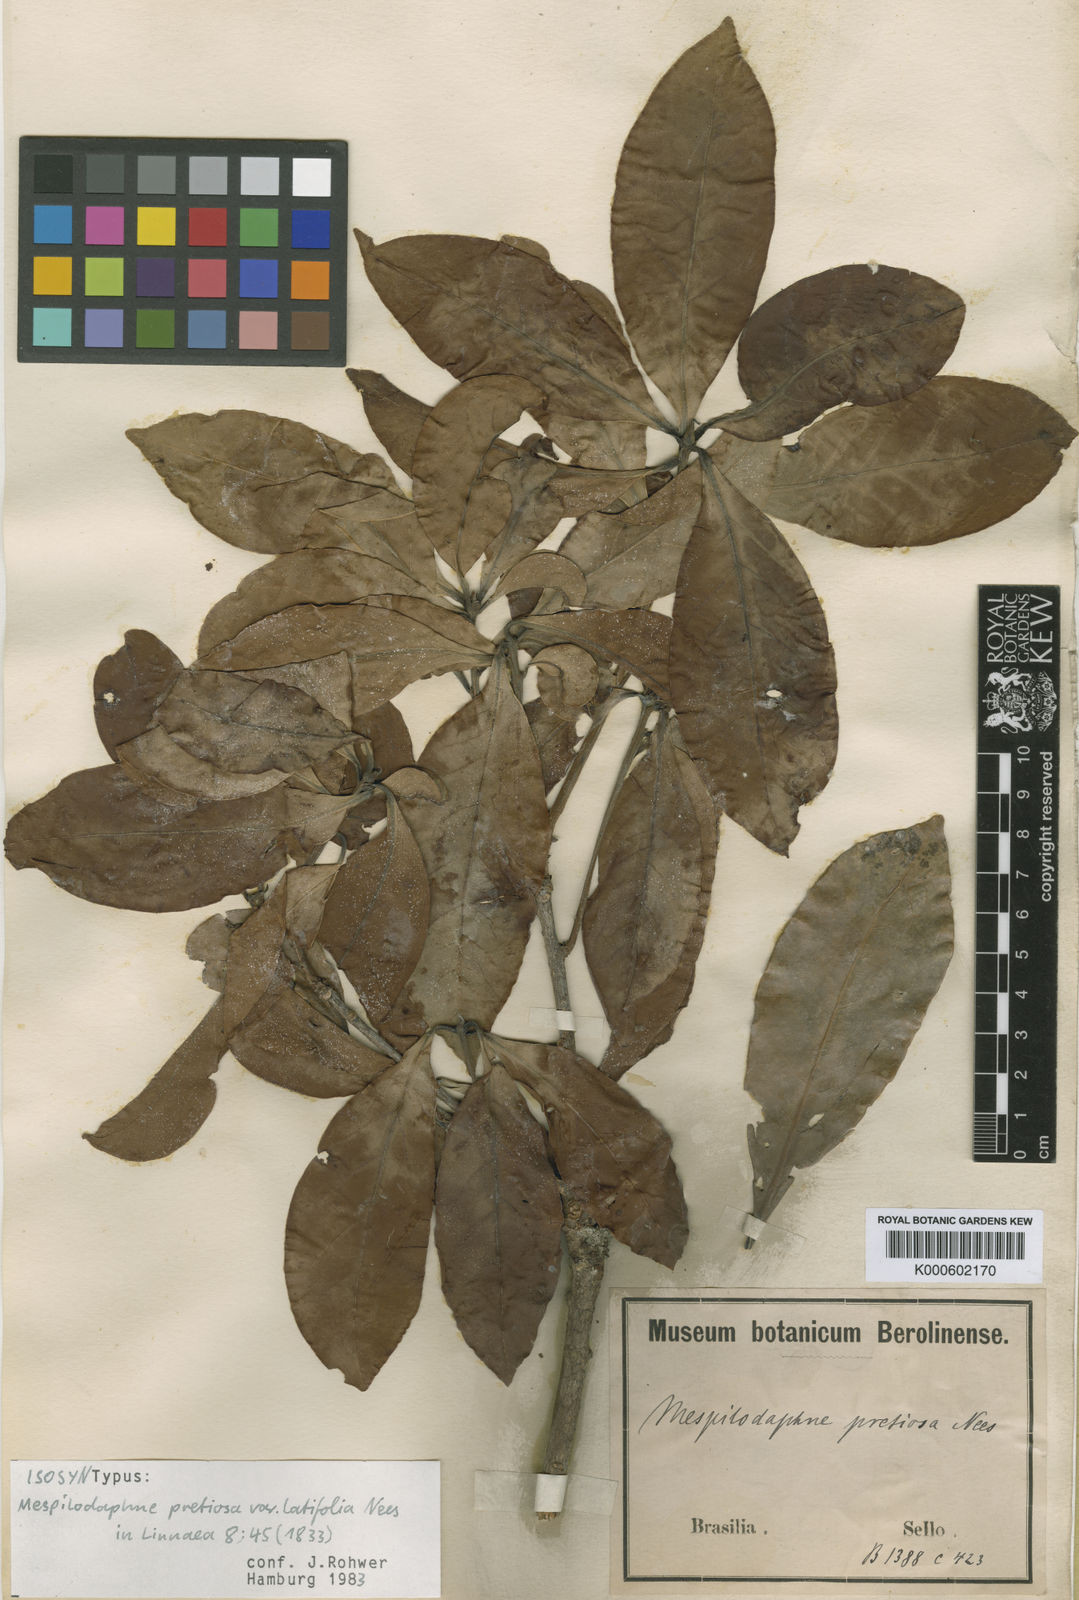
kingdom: Plantae
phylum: Tracheophyta
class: Magnoliopsida
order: Laurales
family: Lauraceae
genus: Mespilodaphne
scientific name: Mespilodaphne quixos
